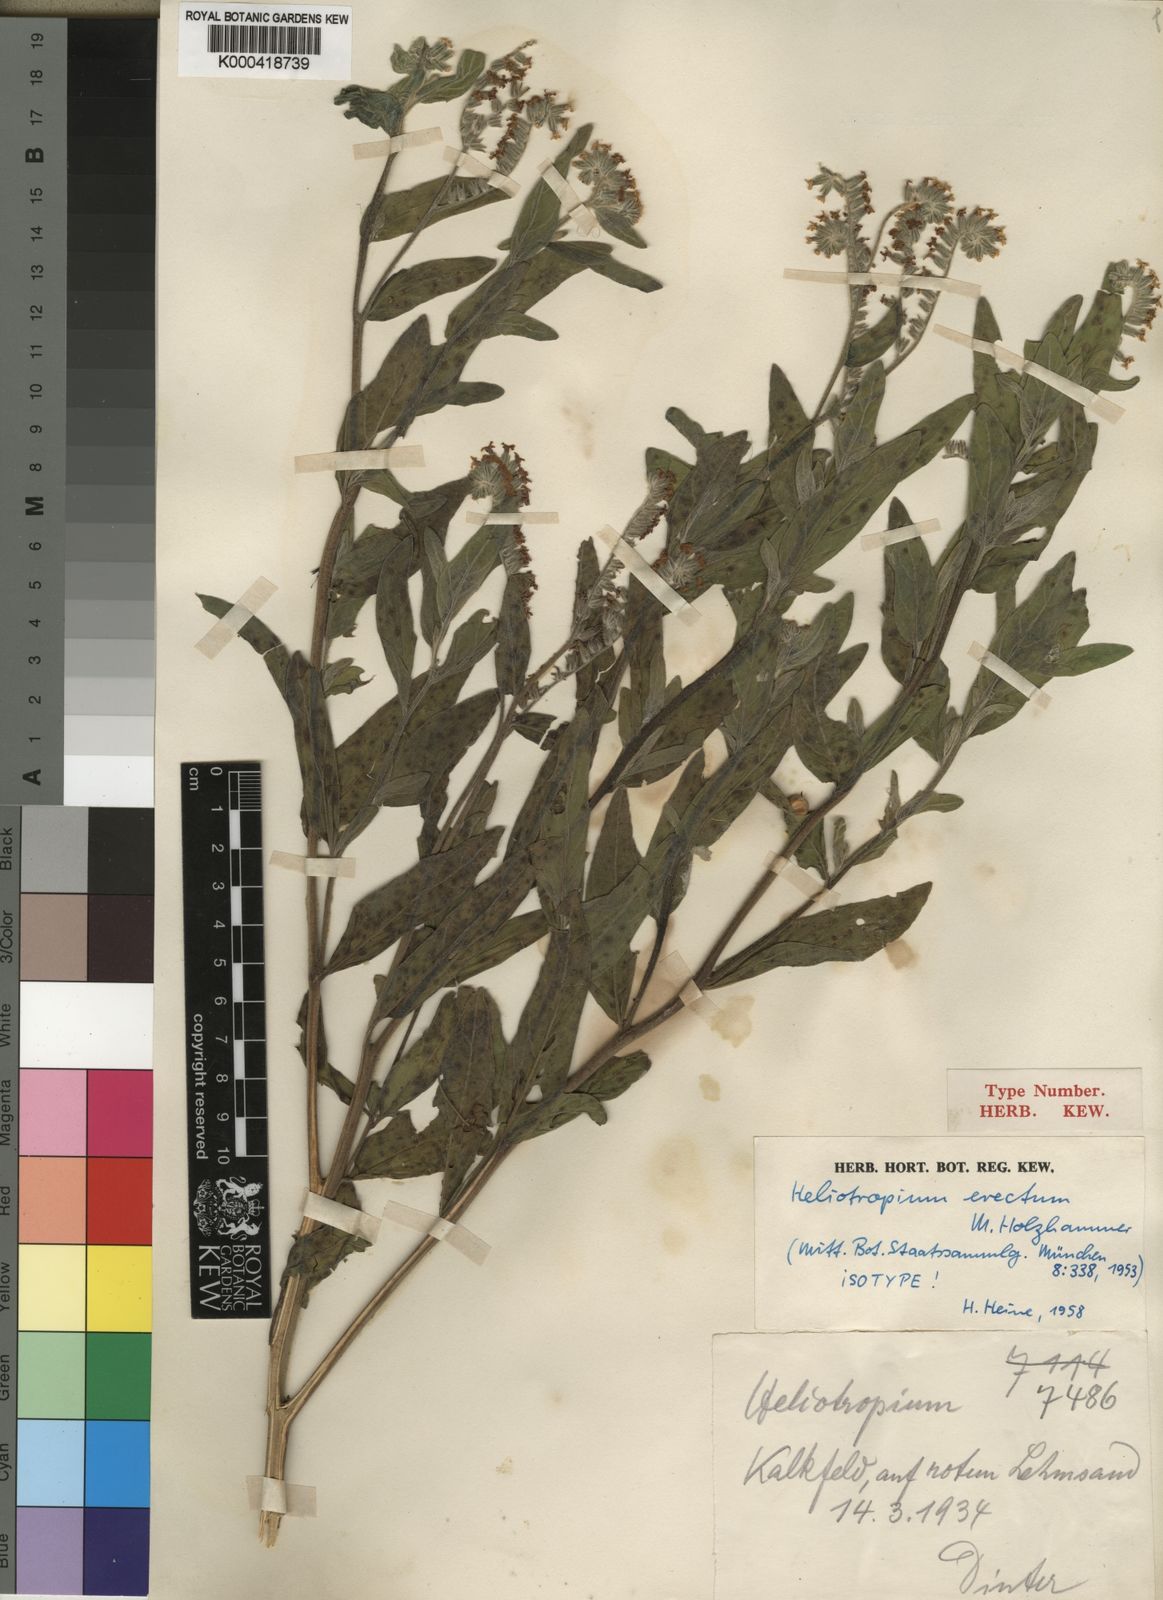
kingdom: Plantae
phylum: Tracheophyta
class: Magnoliopsida
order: Boraginales
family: Heliotropiaceae
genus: Heliotropium
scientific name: Heliotropium
